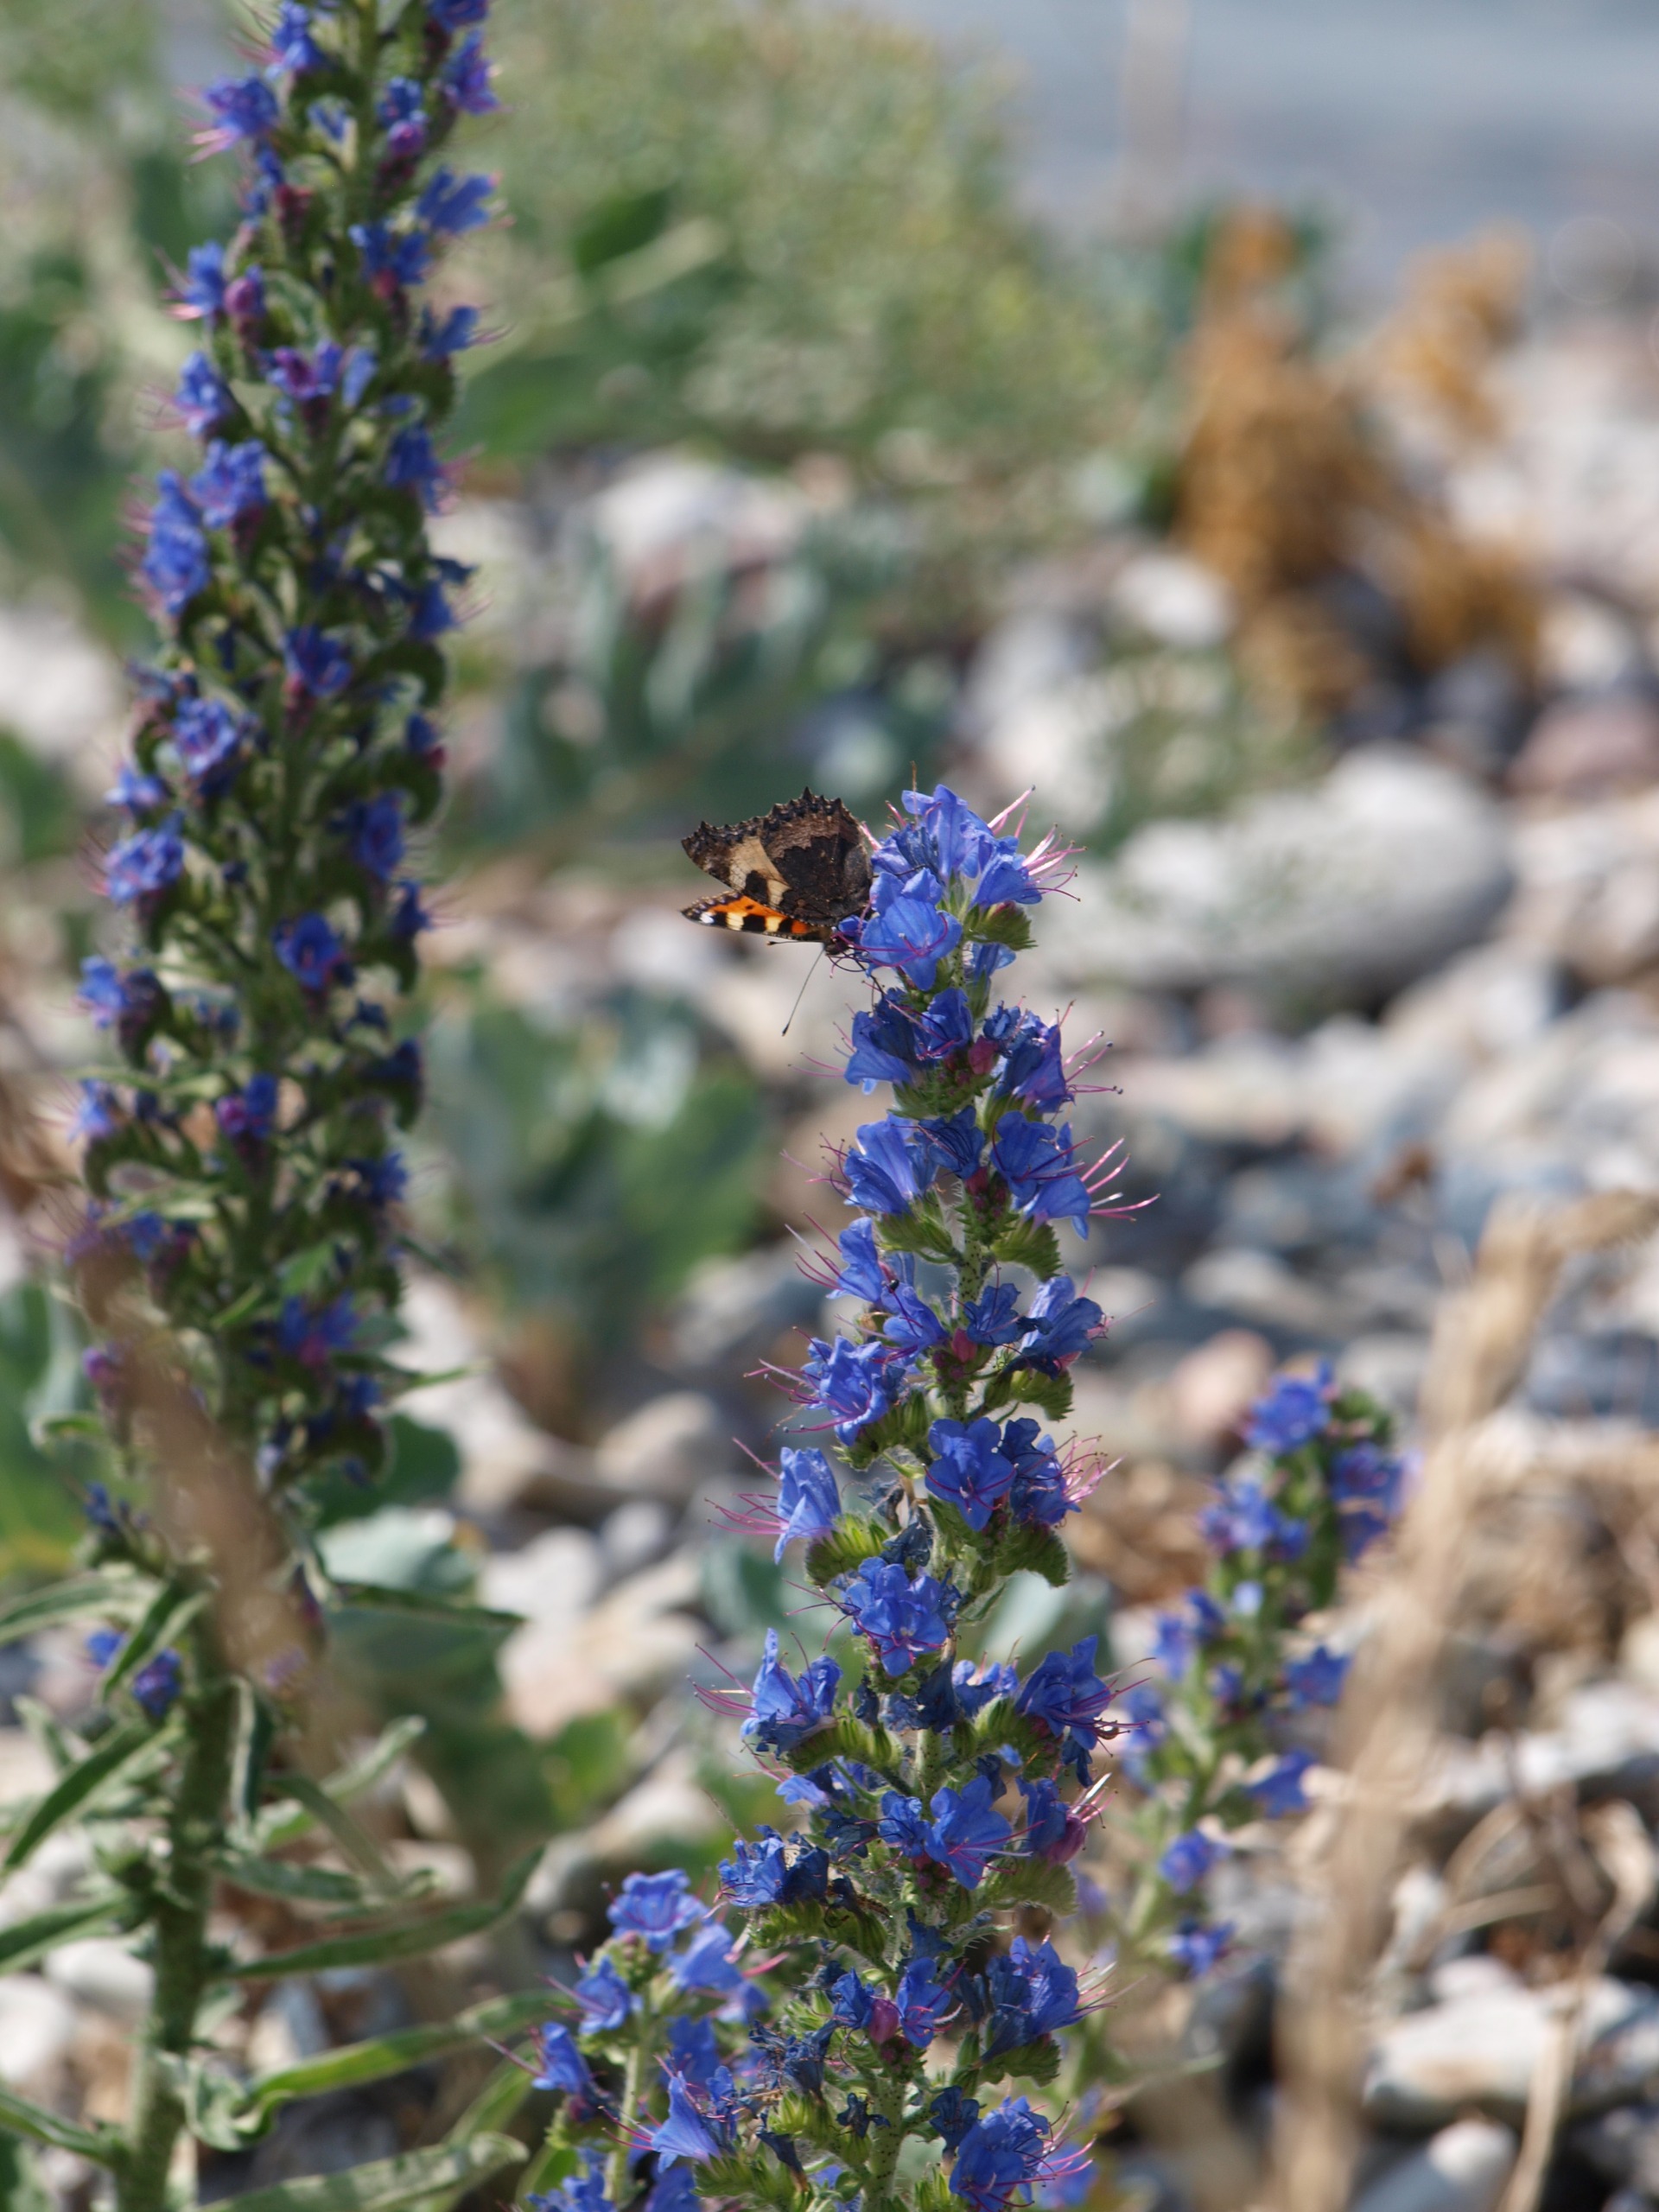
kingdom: Animalia
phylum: Arthropoda
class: Insecta
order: Lepidoptera
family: Nymphalidae
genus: Aglais
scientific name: Aglais urticae
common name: Nældens takvinge
